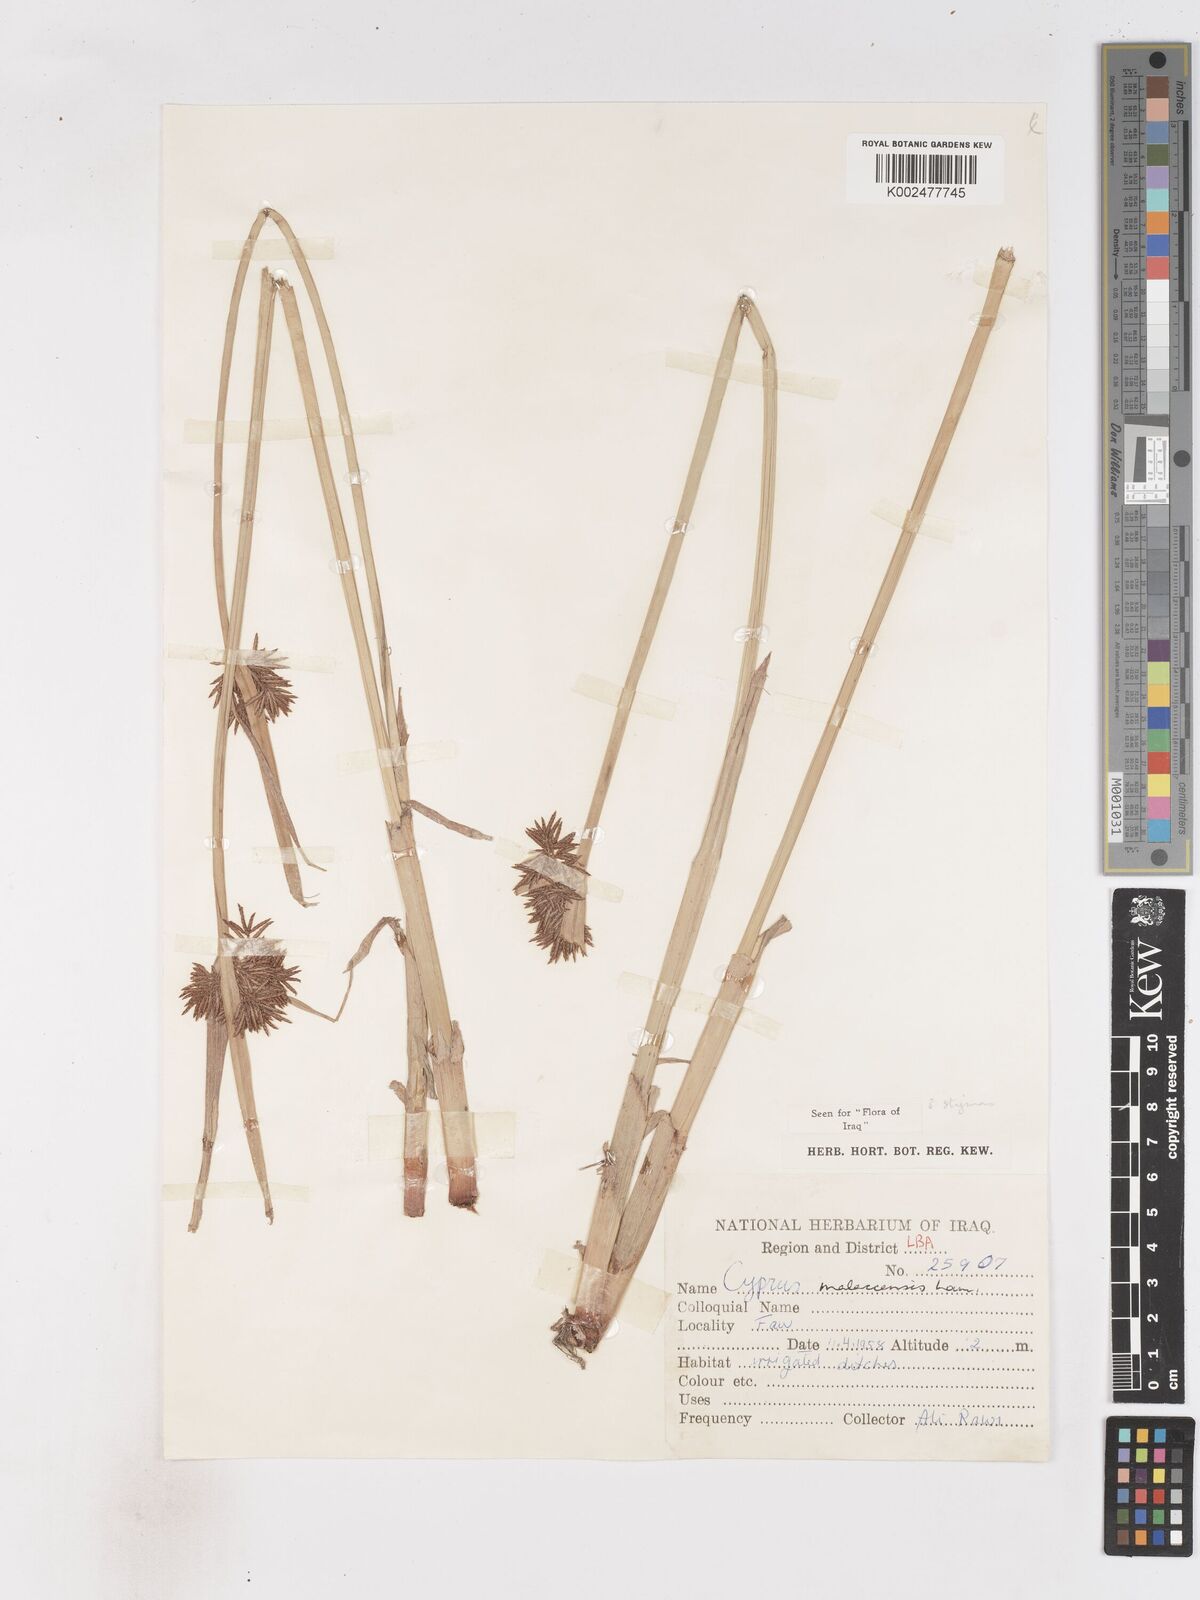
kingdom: Plantae
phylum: Tracheophyta
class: Liliopsida
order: Poales
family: Cyperaceae
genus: Cyperus
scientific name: Cyperus malaccensis
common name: Shichito matgrass
